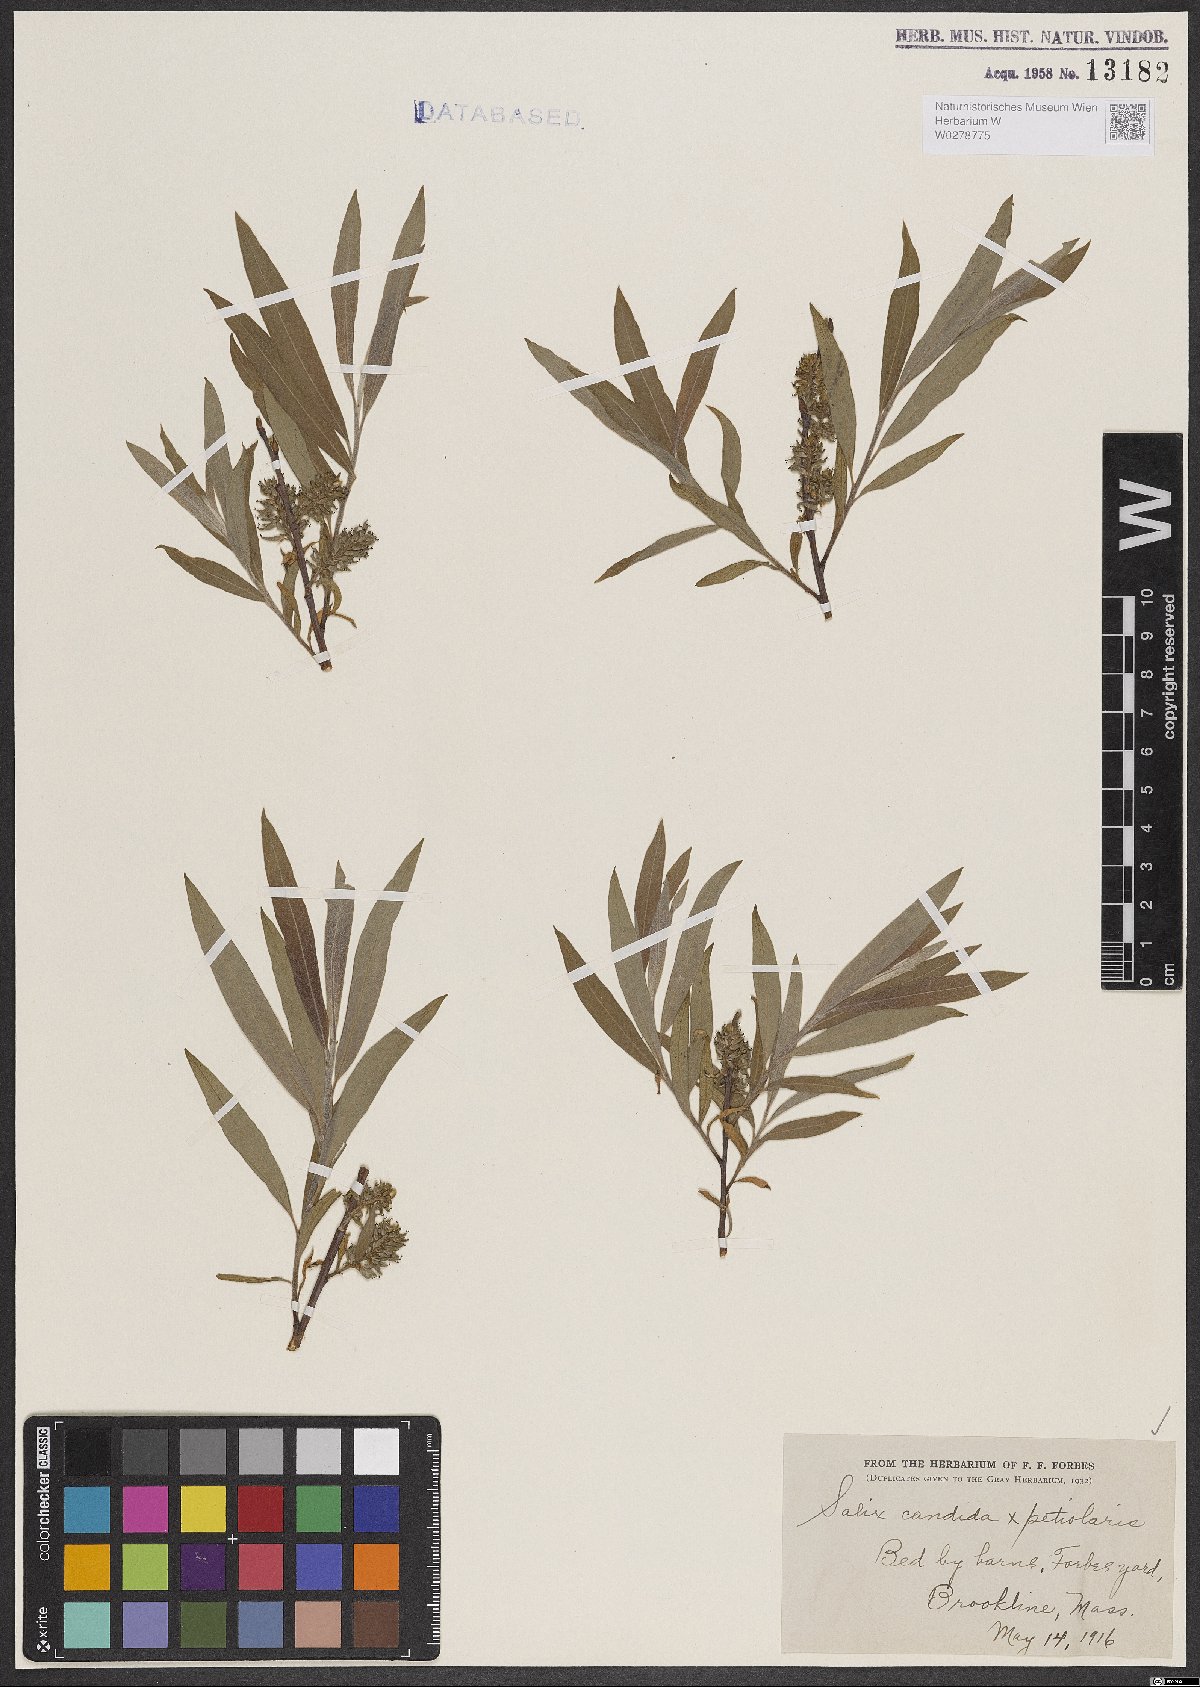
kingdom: Plantae
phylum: Tracheophyta
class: Magnoliopsida
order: Malpighiales
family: Salicaceae
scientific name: Salicaceae
